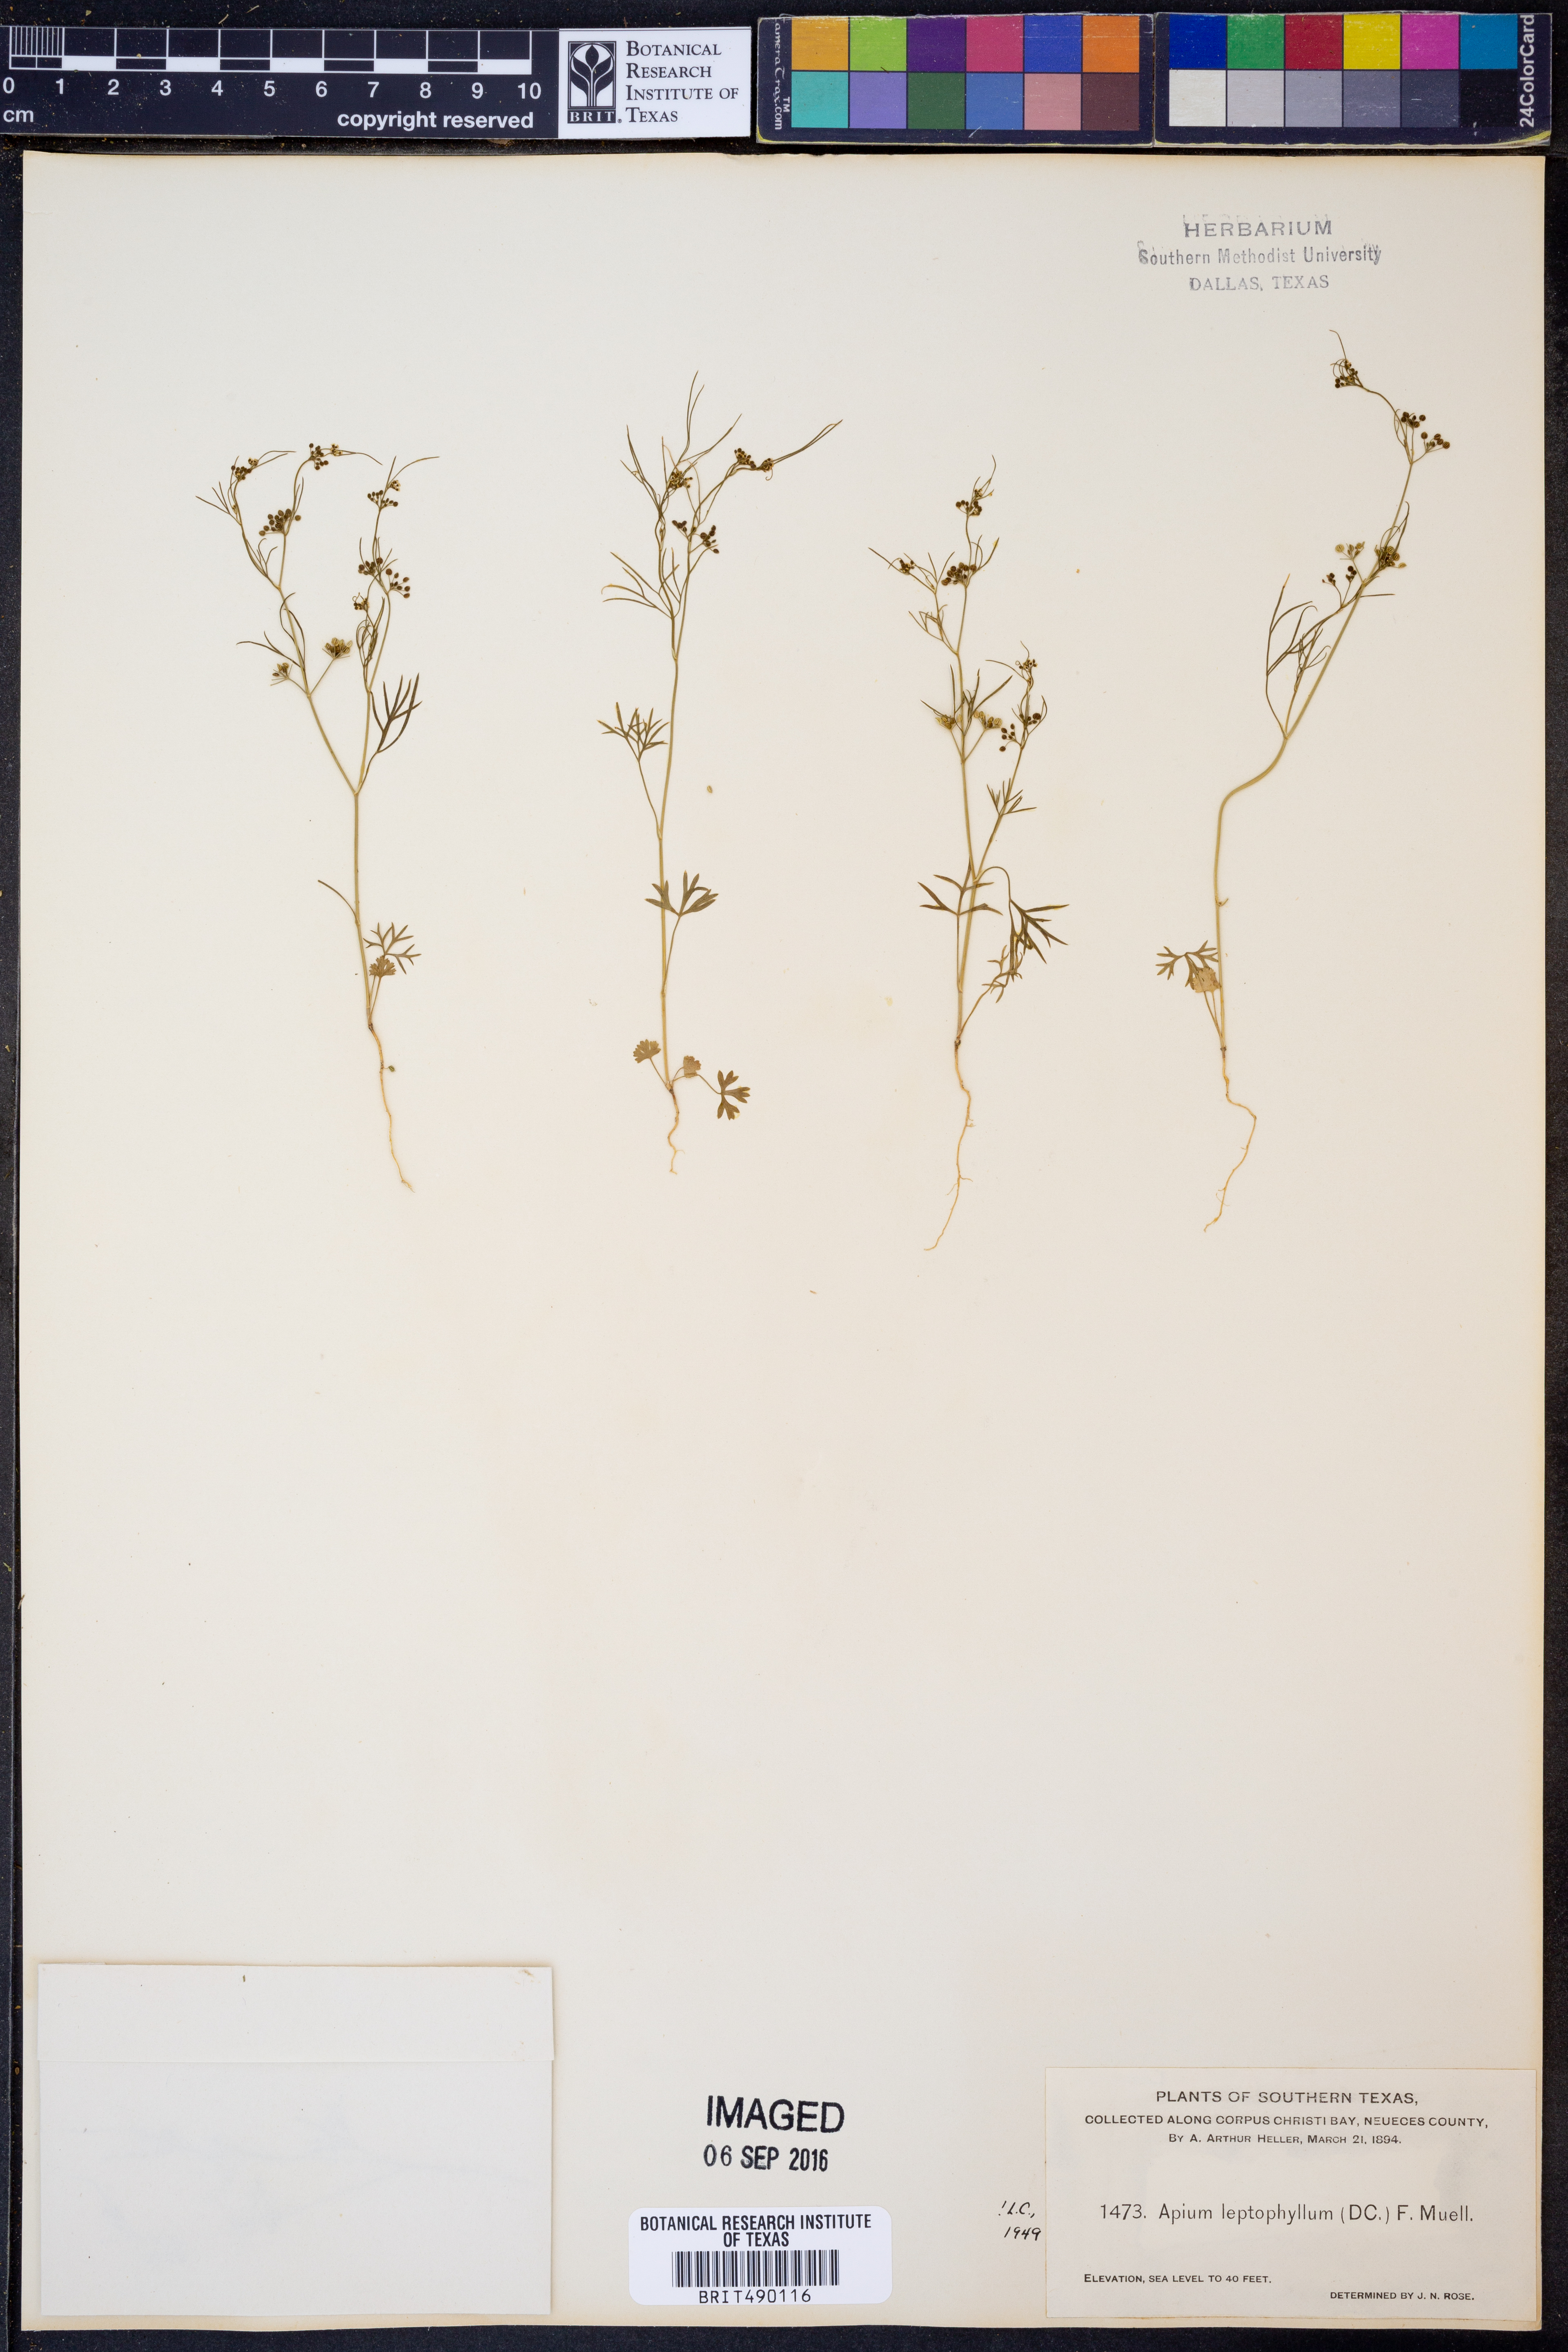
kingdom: Plantae
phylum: Tracheophyta
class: Magnoliopsida
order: Apiales
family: Apiaceae
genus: Cyclospermum
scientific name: Cyclospermum leptophyllum
